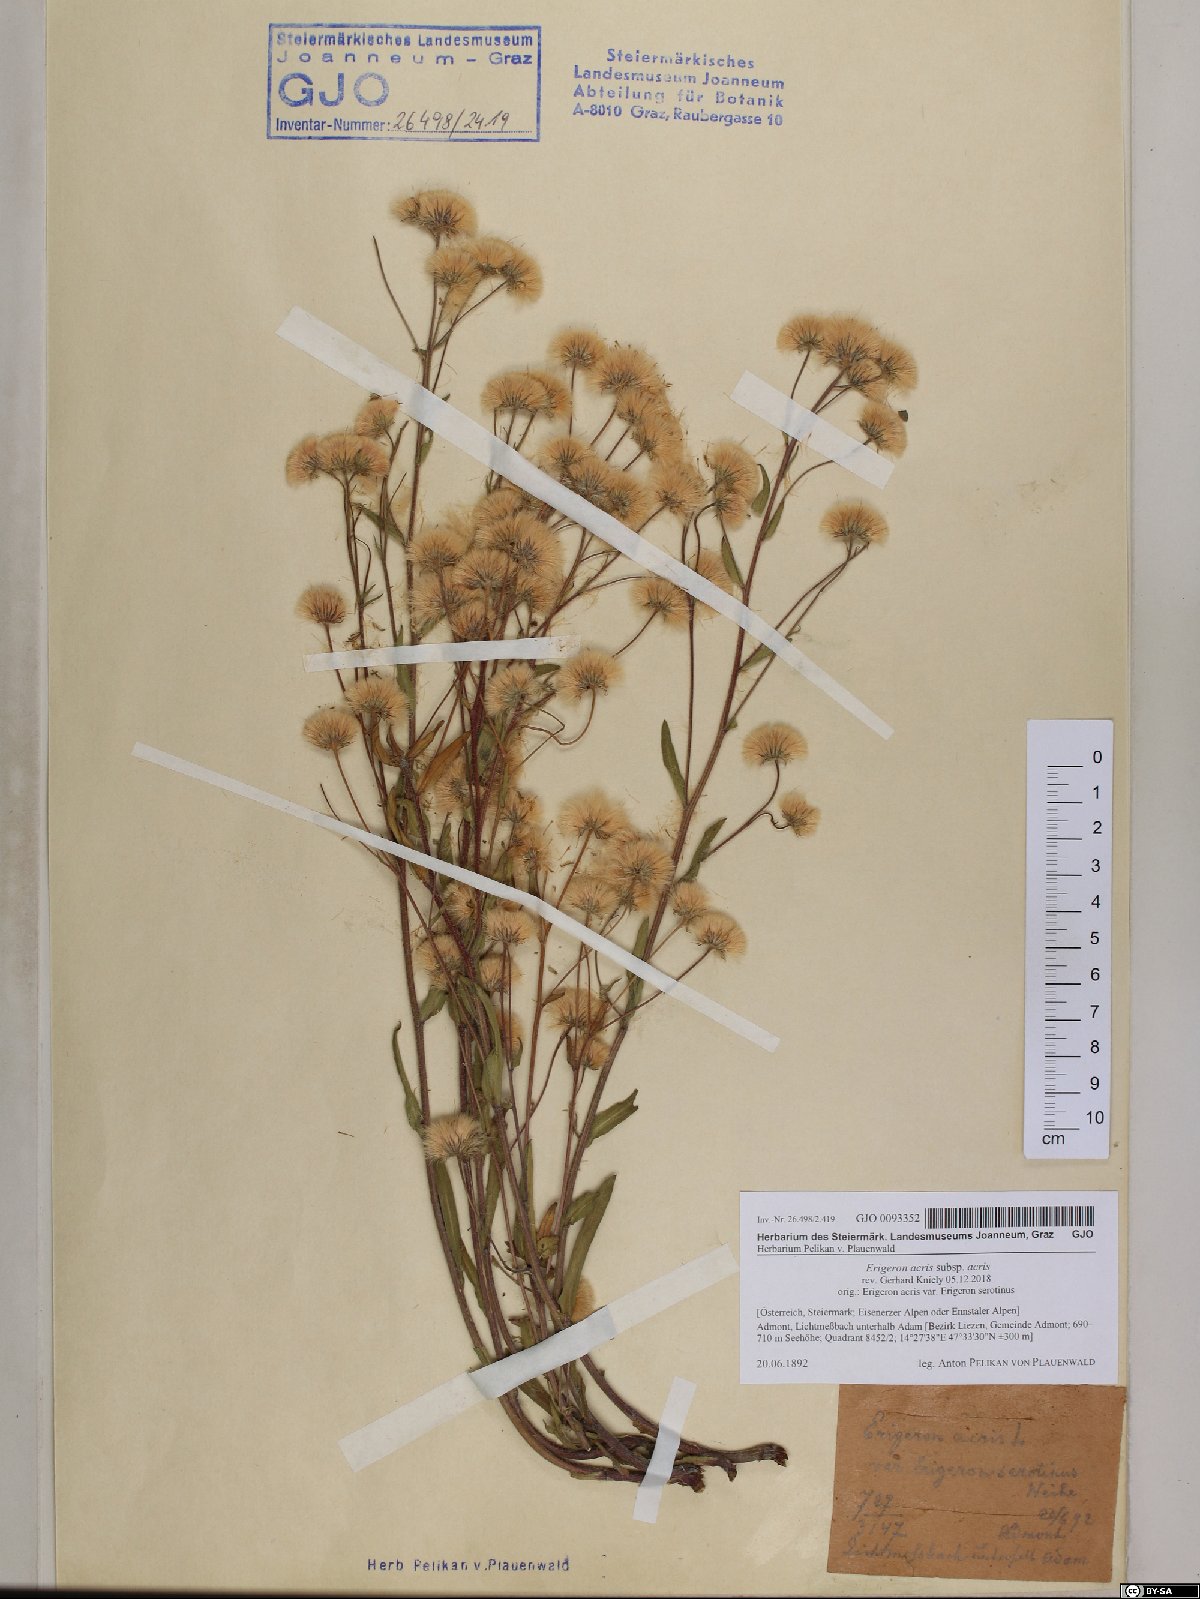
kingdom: Plantae
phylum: Tracheophyta
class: Magnoliopsida
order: Asterales
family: Asteraceae
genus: Erigeron
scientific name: Erigeron acris
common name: Blue fleabane
